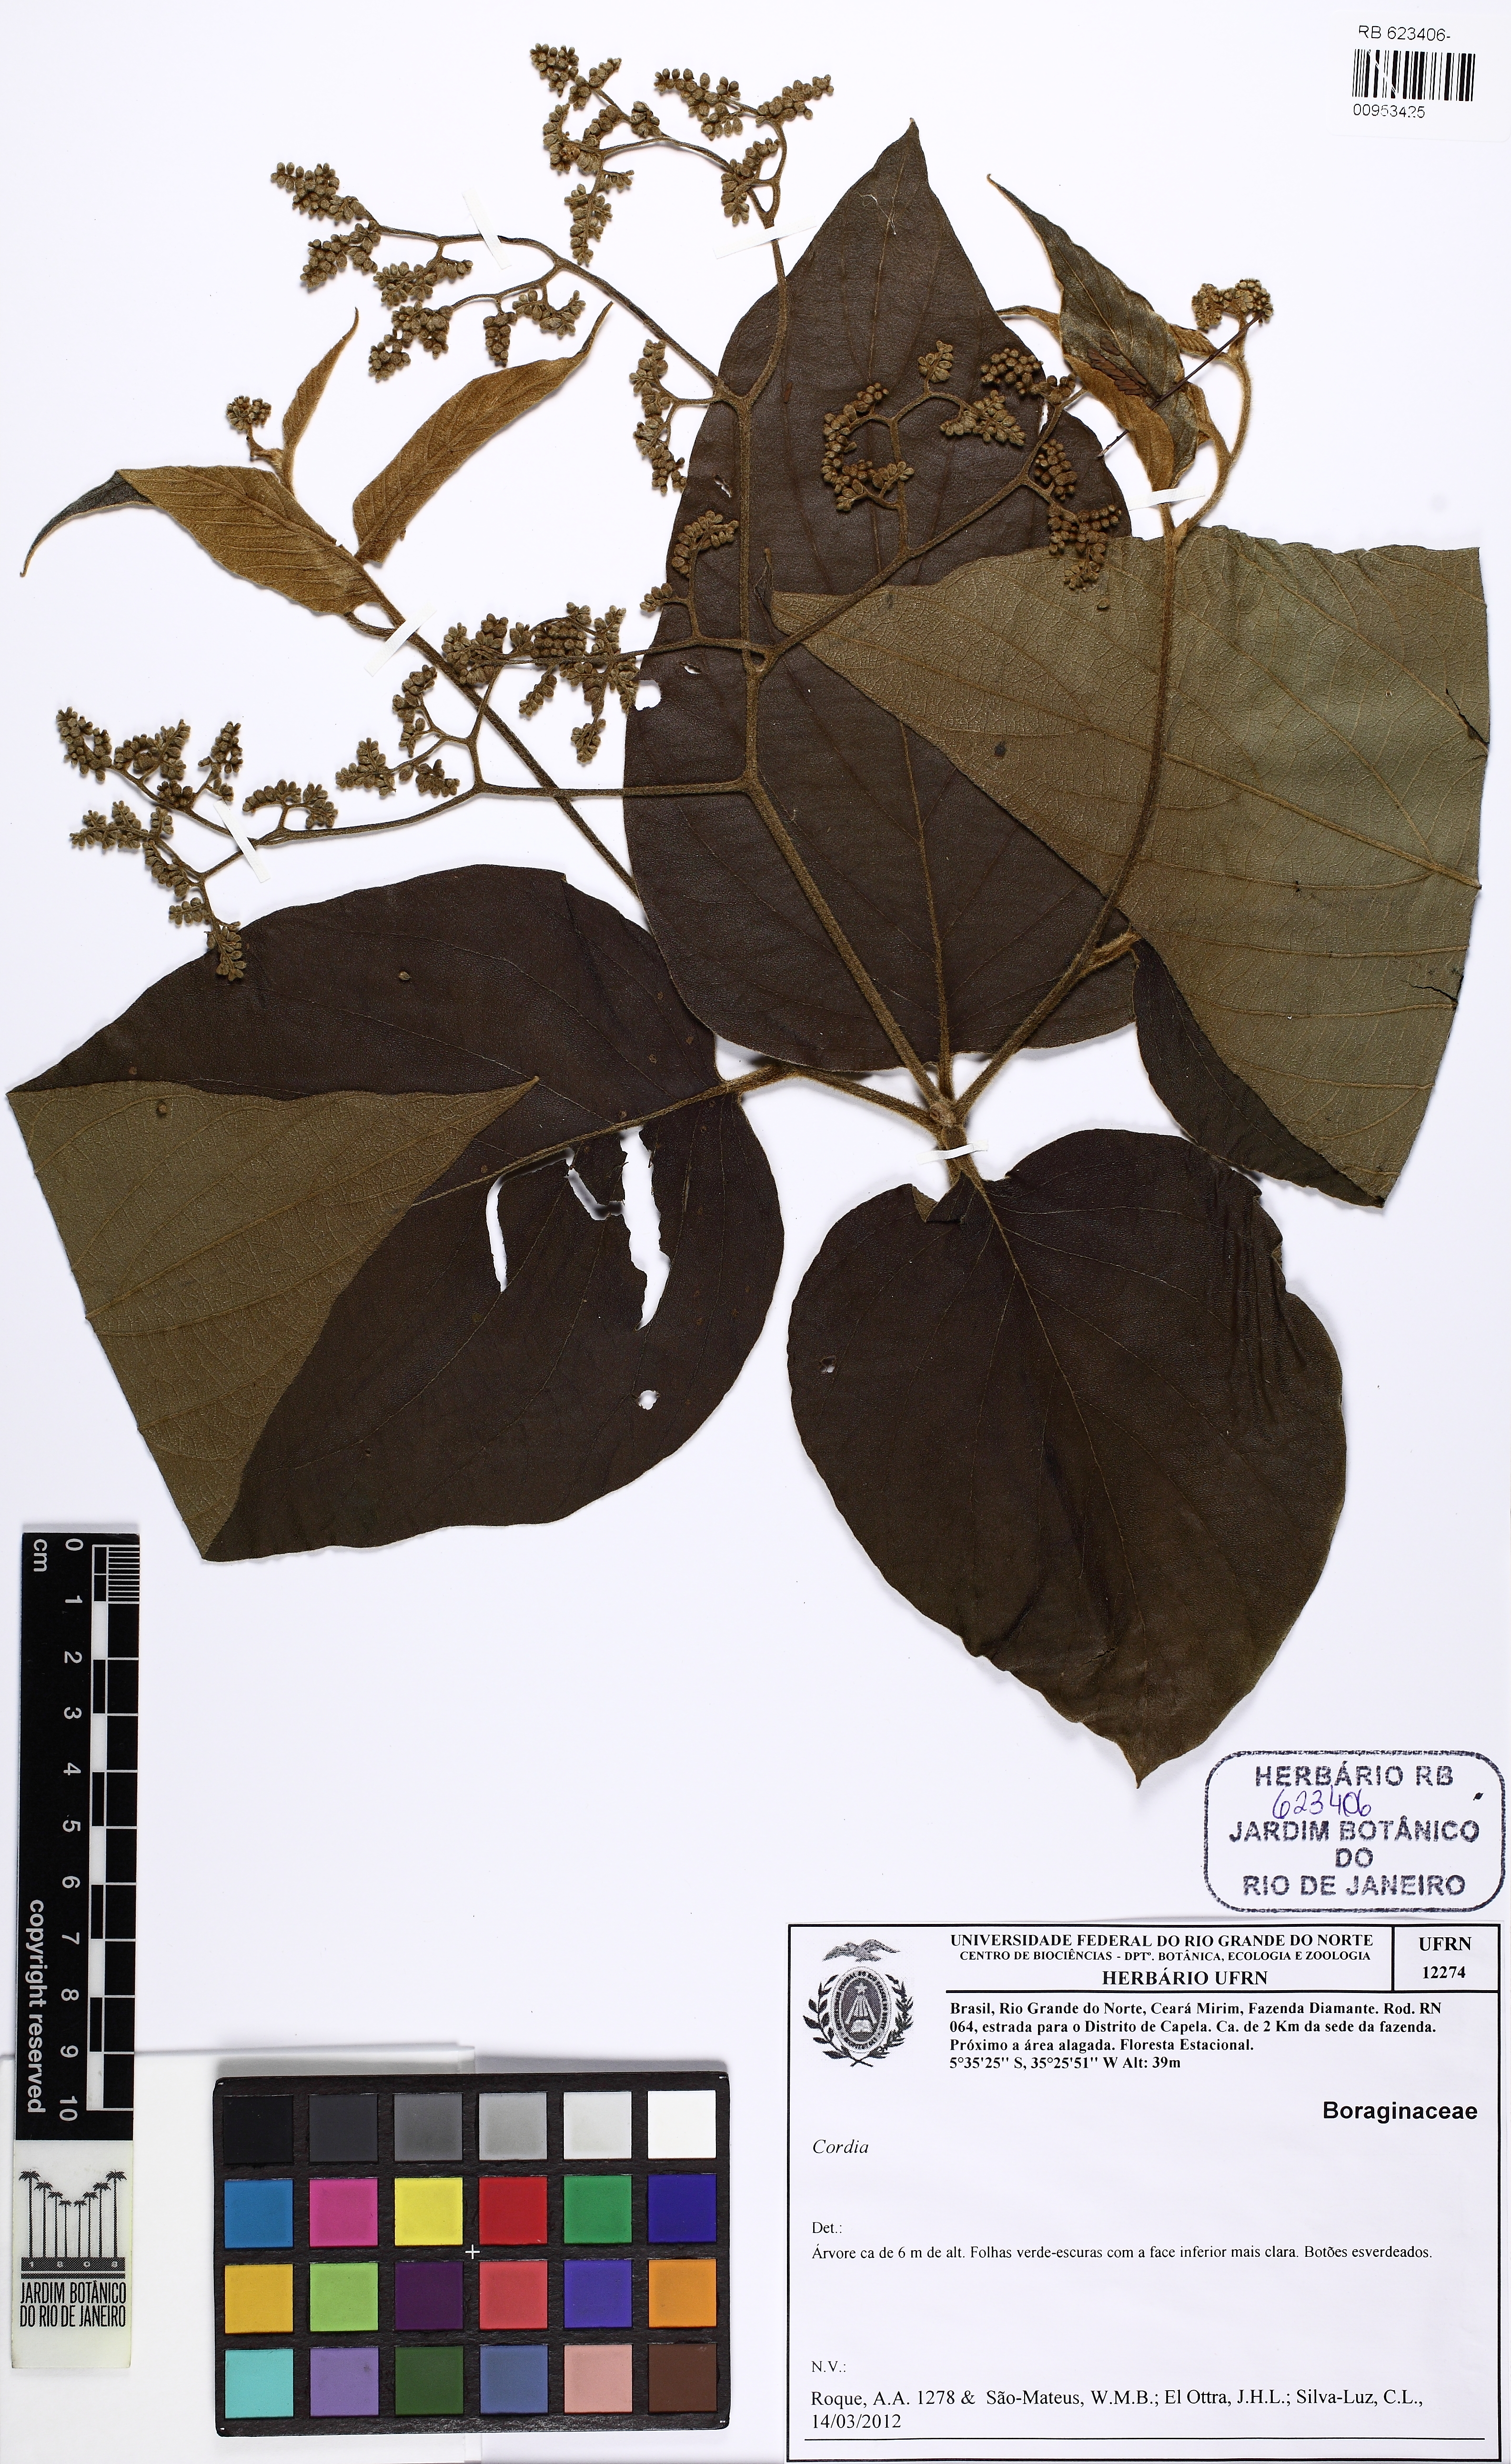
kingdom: Plantae
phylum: Tracheophyta
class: Magnoliopsida
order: Boraginales
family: Cordiaceae
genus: Cordia
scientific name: Cordia
